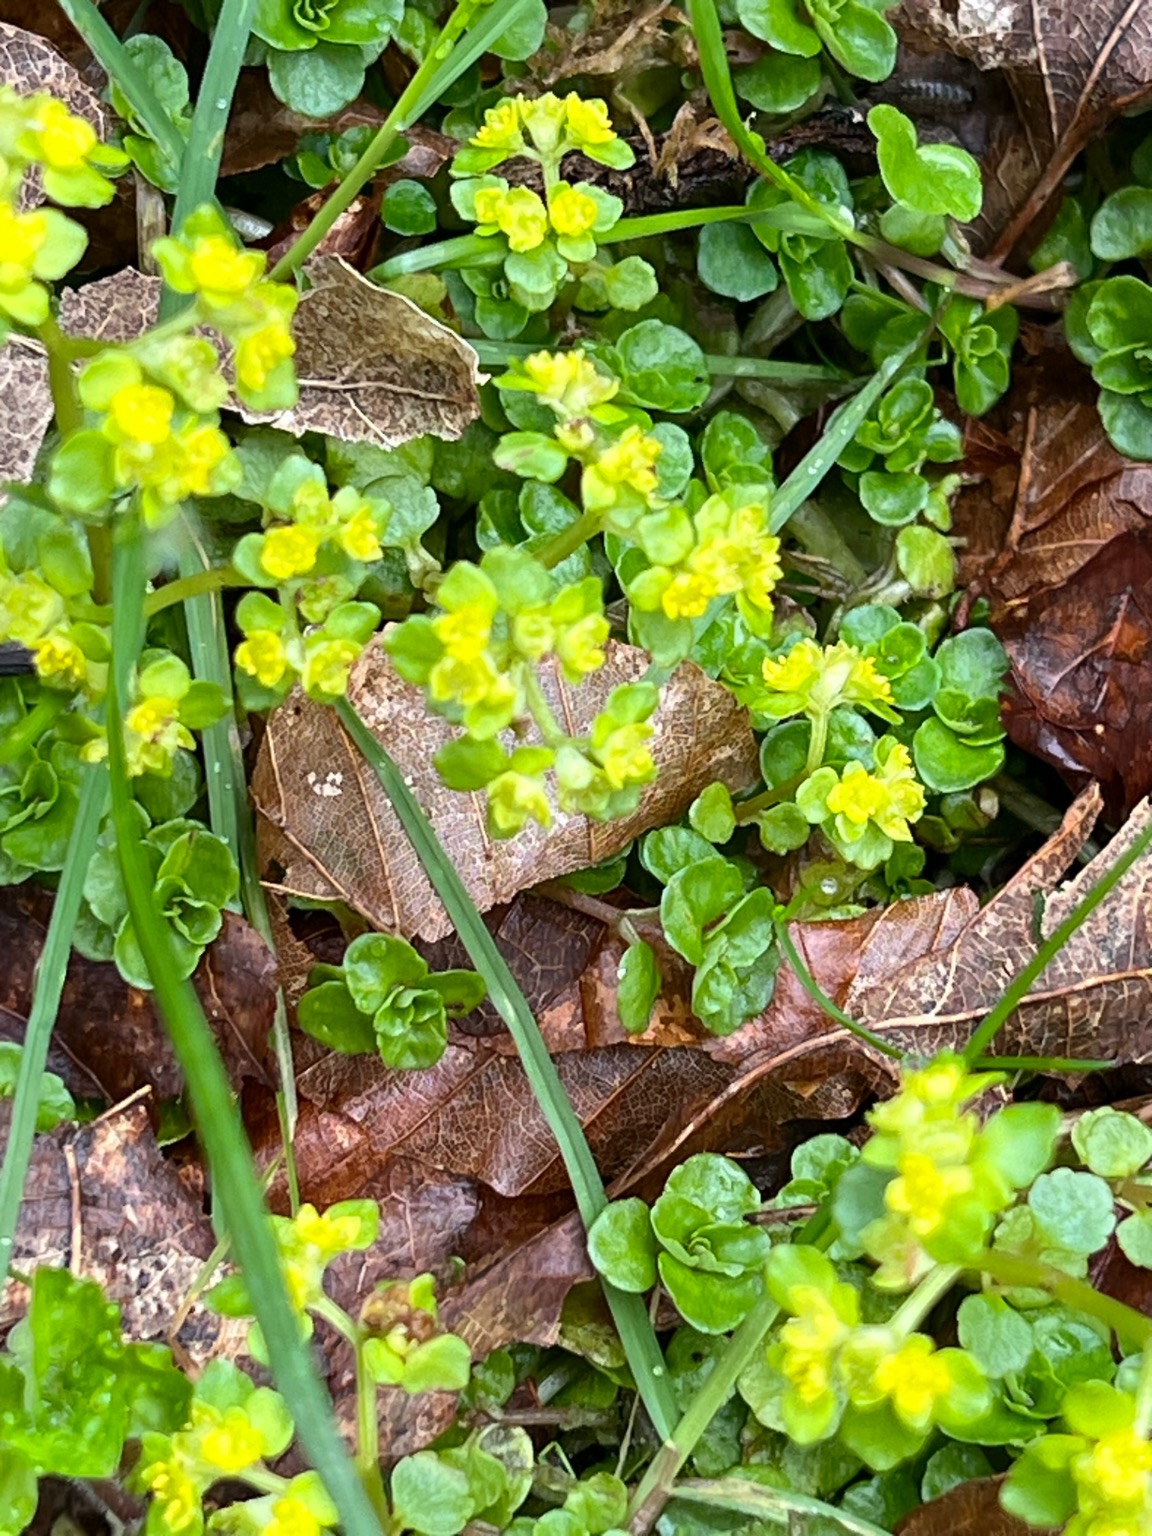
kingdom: Plantae
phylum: Tracheophyta
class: Magnoliopsida
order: Saxifragales
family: Saxifragaceae
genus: Chrysosplenium
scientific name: Chrysosplenium oppositifolium
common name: Småbladet milturt
